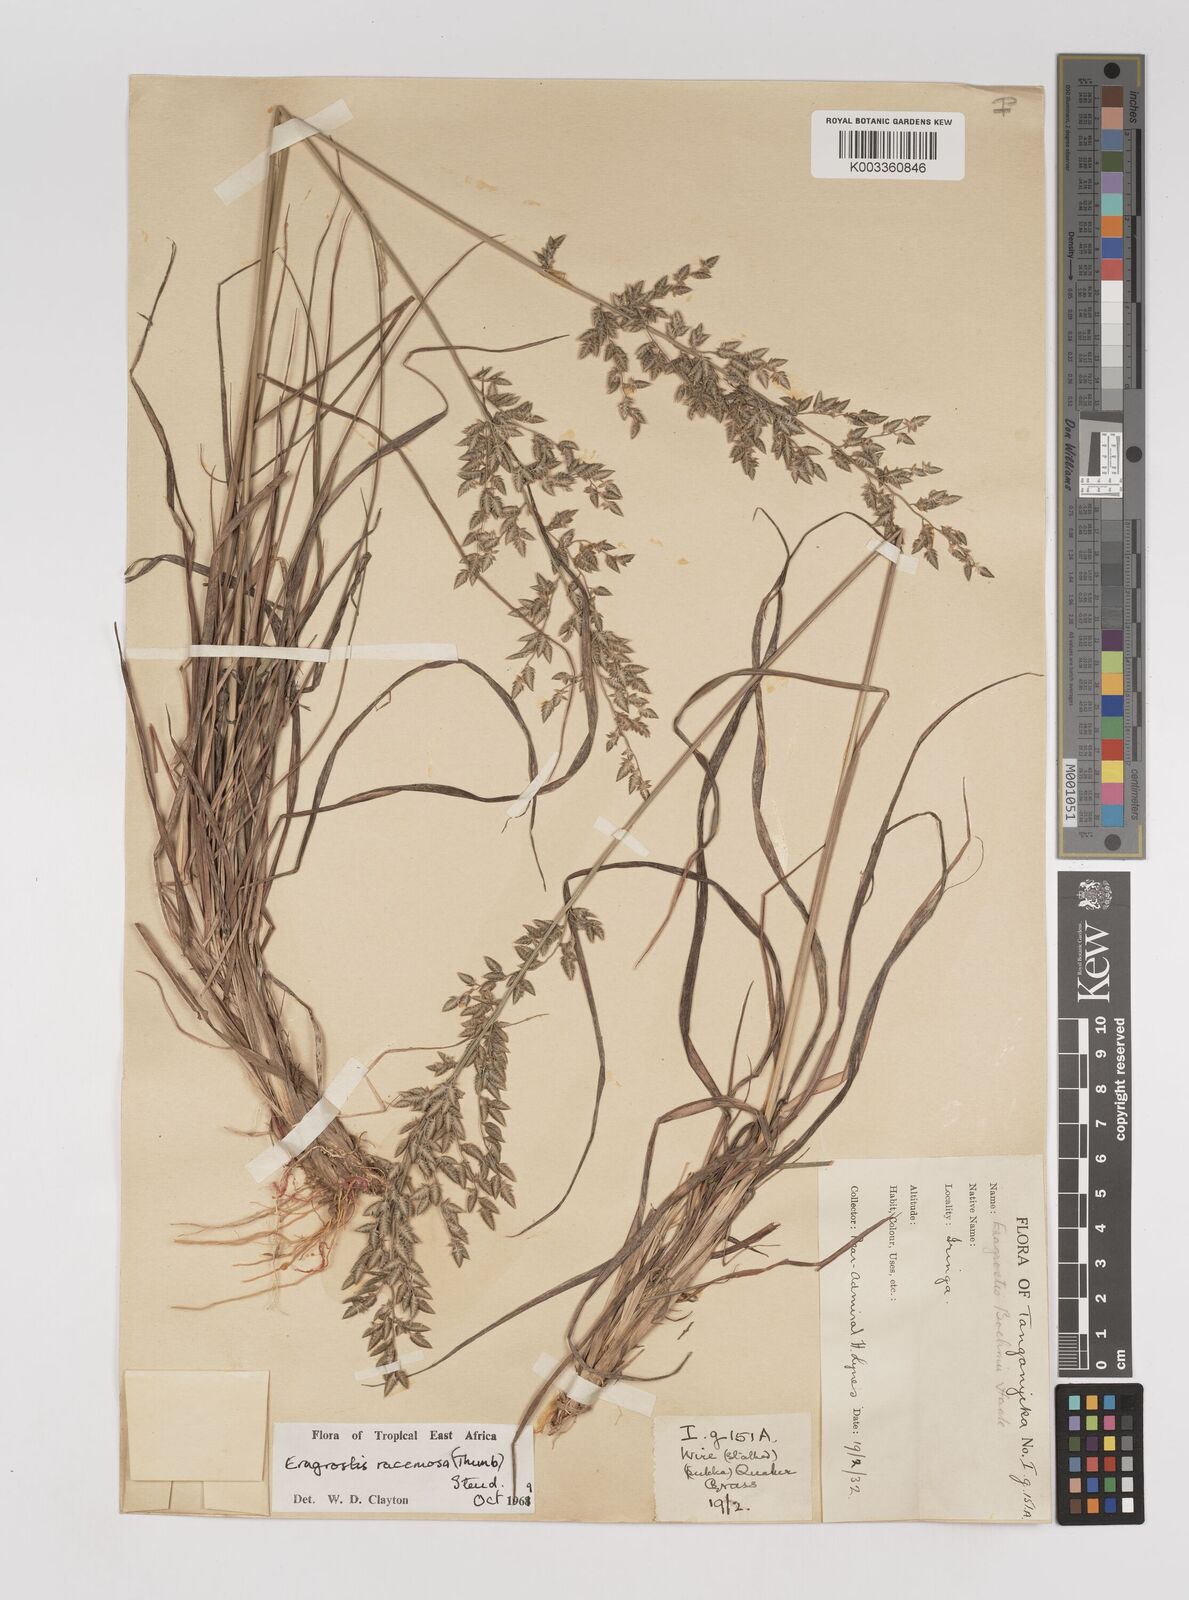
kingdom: Plantae
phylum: Tracheophyta
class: Liliopsida
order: Poales
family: Poaceae
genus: Eragrostis
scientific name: Eragrostis racemosa
